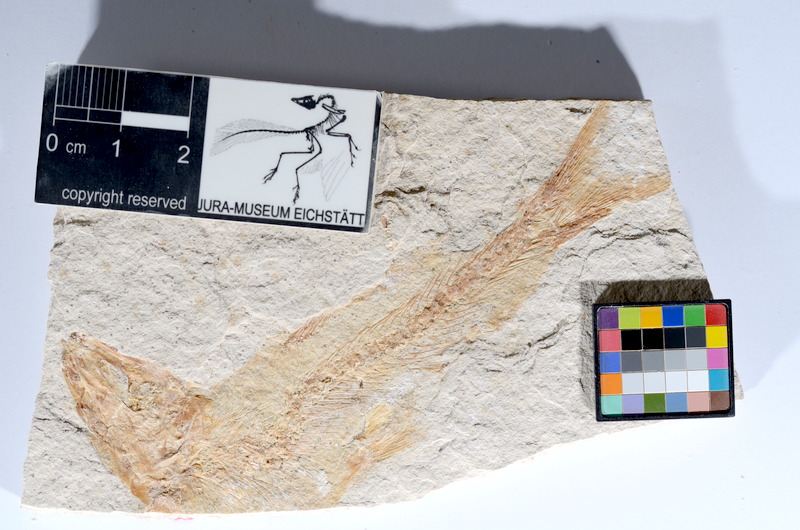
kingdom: Animalia
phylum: Chordata
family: Ascalaboidae
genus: Tharsis
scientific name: Tharsis dubius
